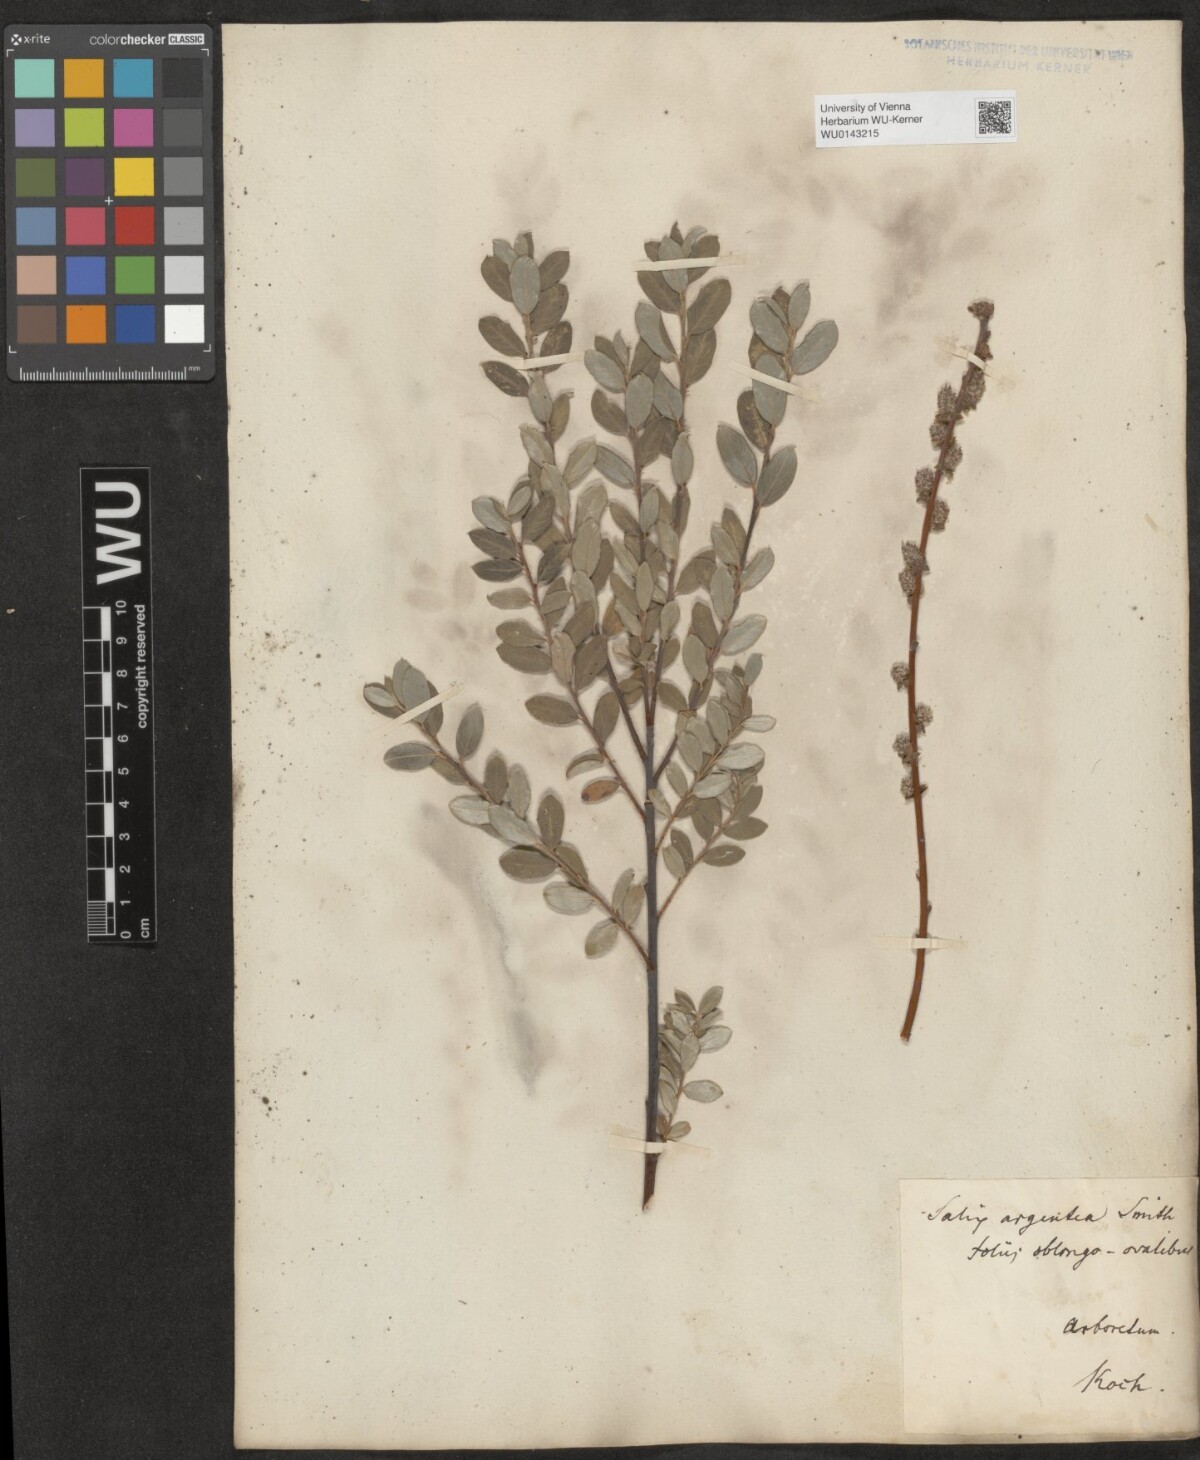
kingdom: Plantae
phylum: Tracheophyta
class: Magnoliopsida
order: Malpighiales
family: Salicaceae
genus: Salix
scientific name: Salix repens
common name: Creeping willow
